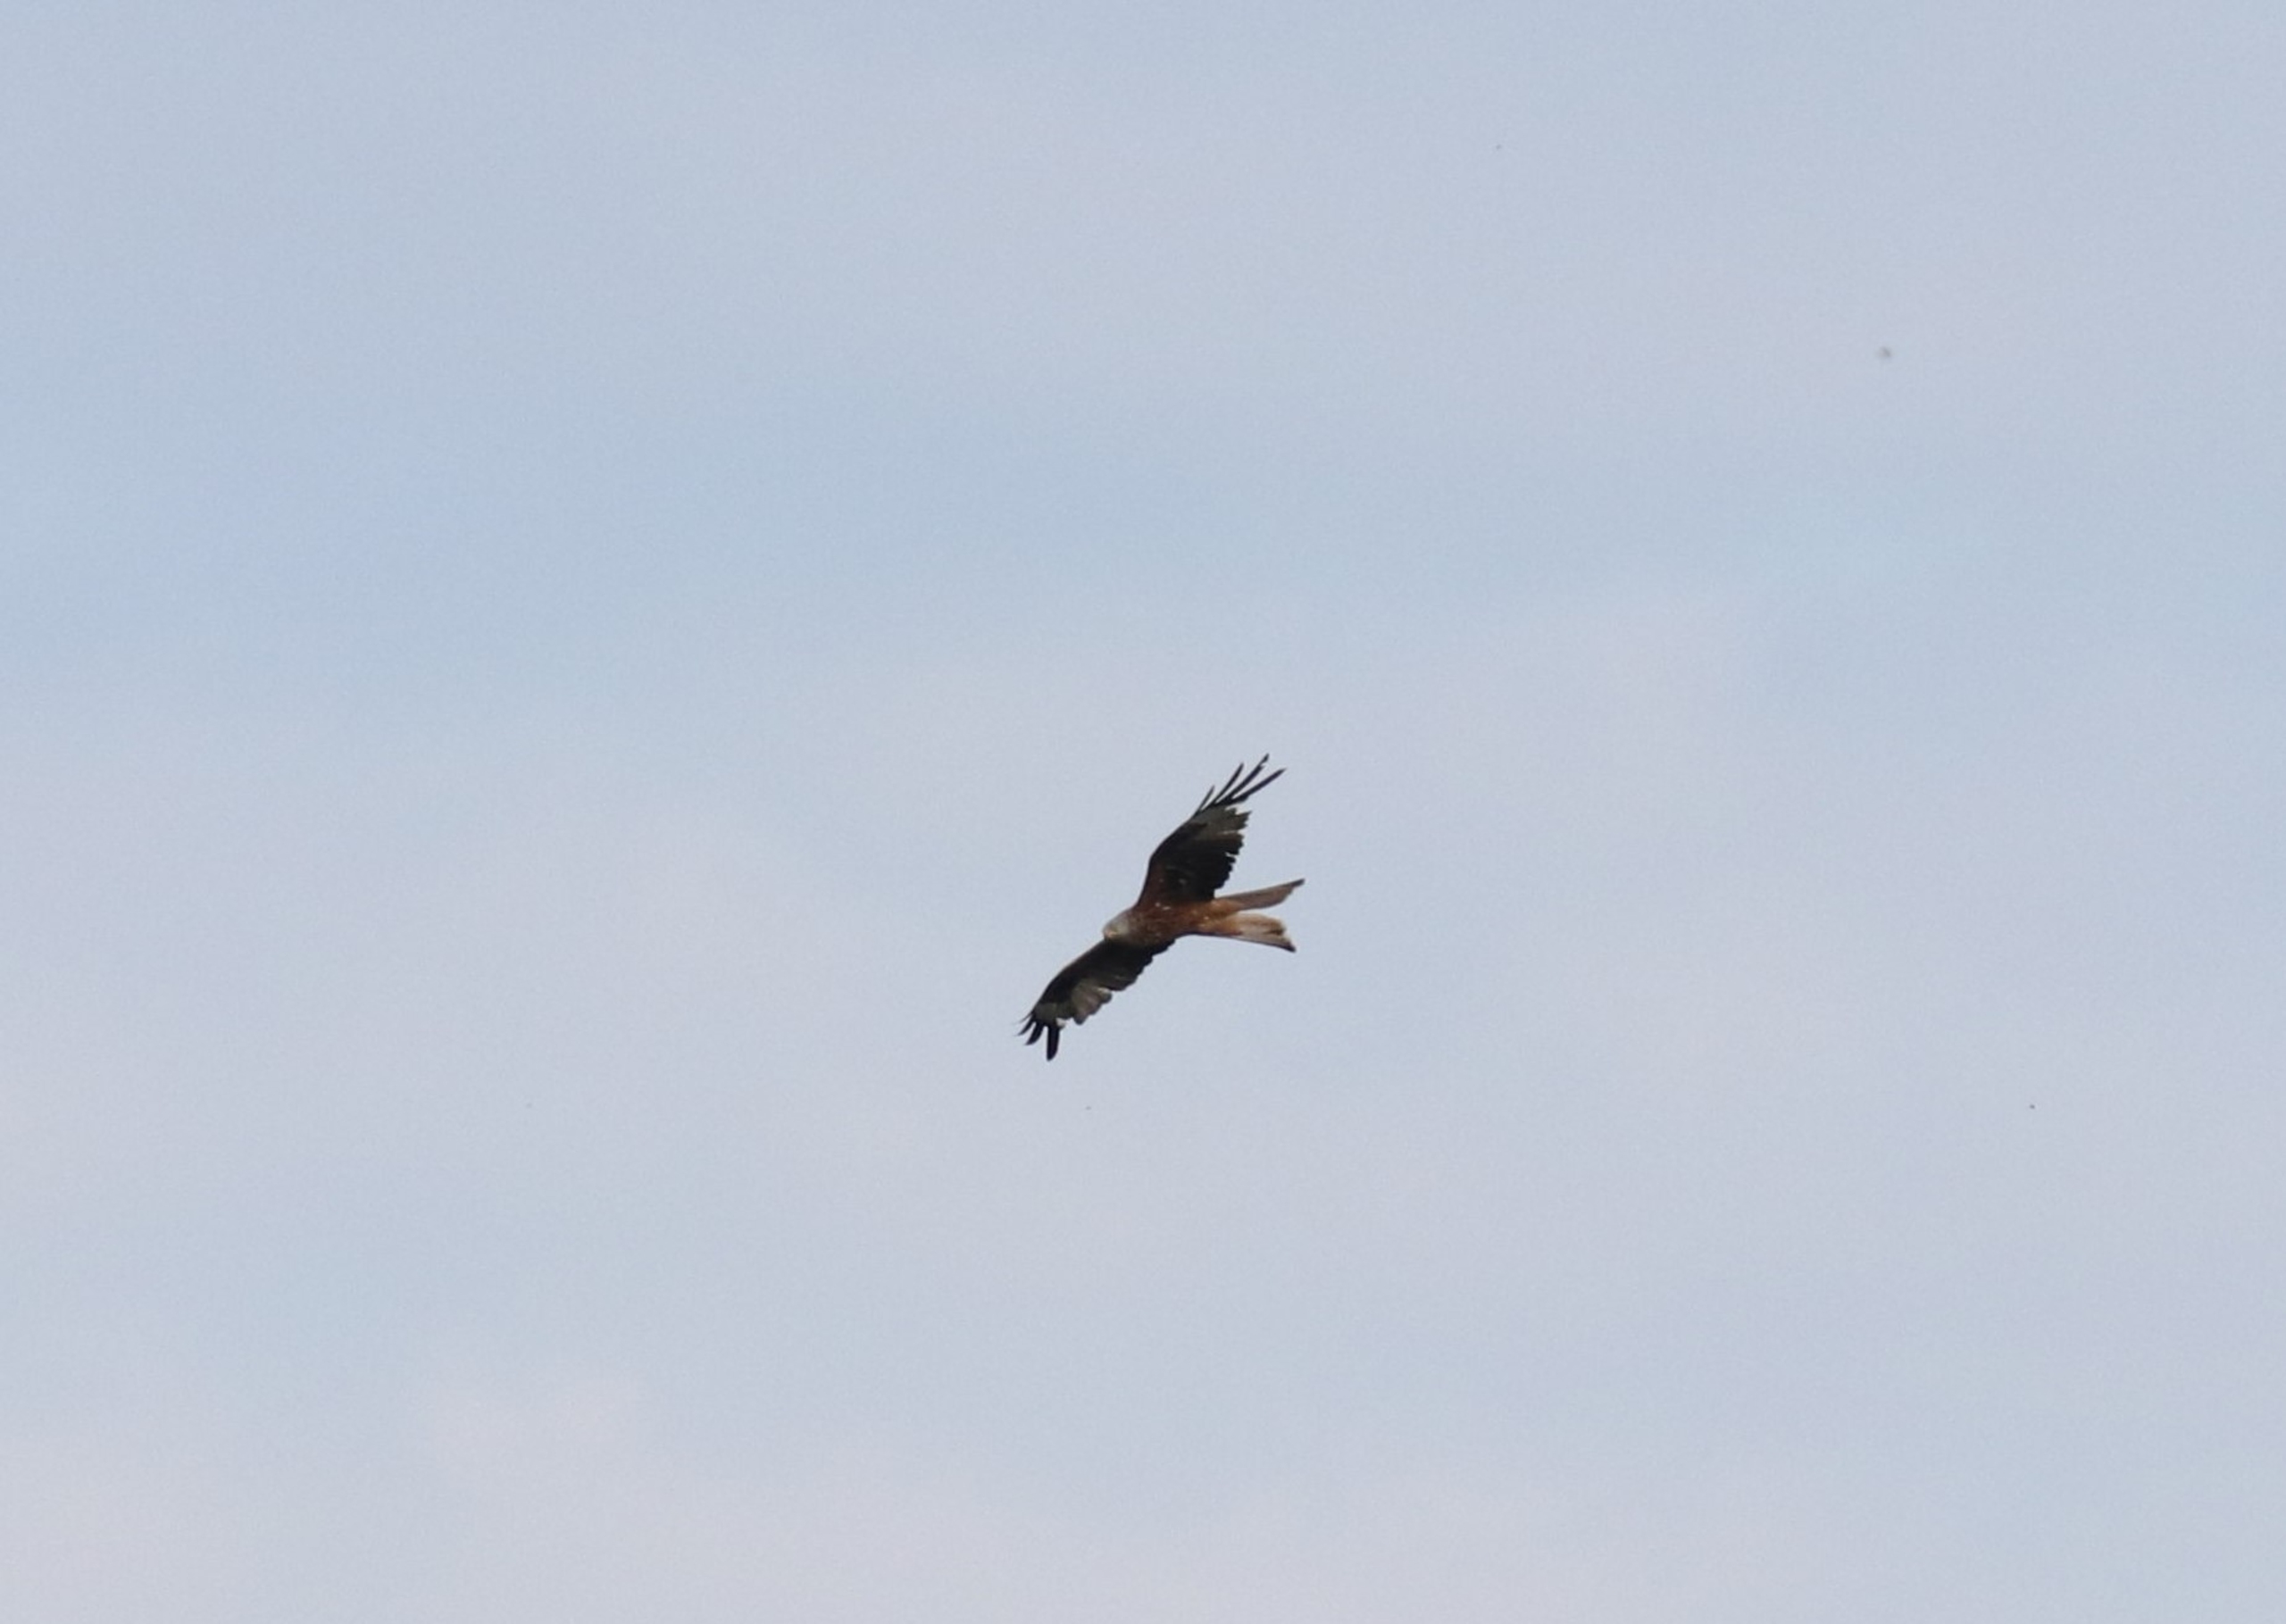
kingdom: Animalia
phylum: Chordata
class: Aves
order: Accipitriformes
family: Accipitridae
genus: Milvus
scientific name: Milvus milvus
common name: Rød glente
